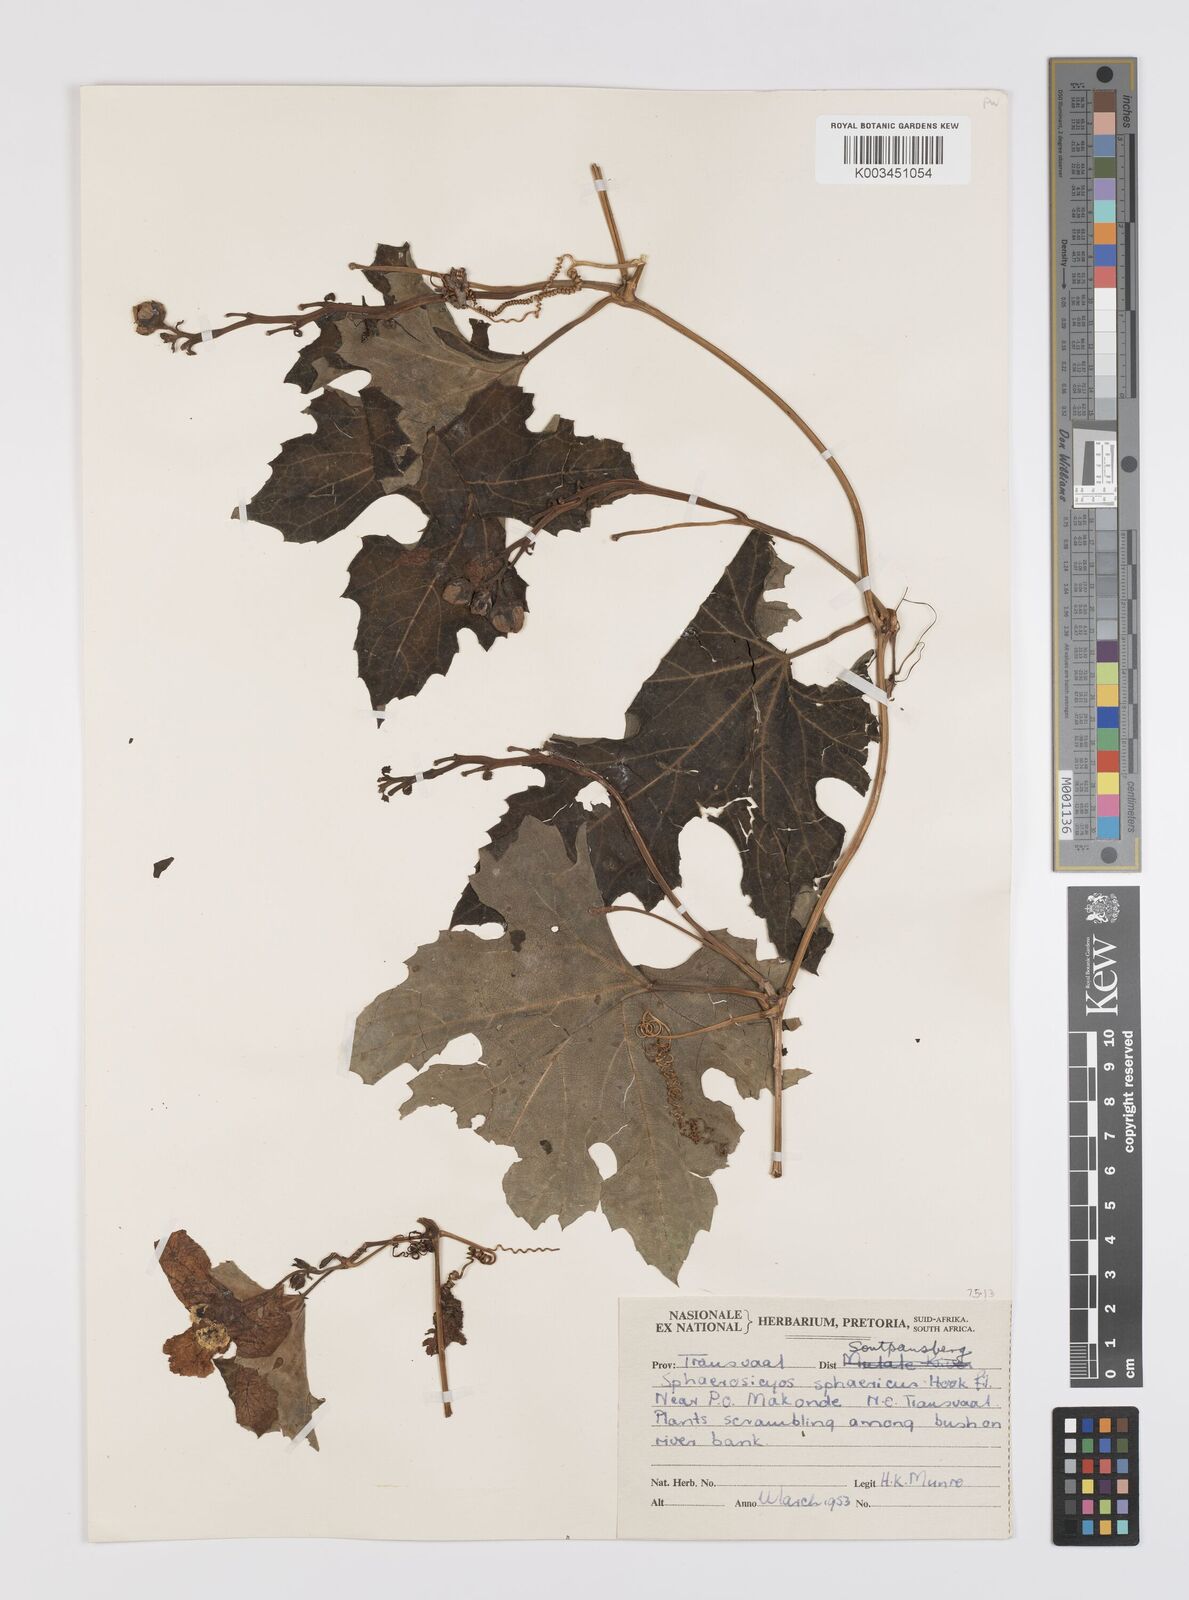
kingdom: Plantae
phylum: Tracheophyta
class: Magnoliopsida
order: Cucurbitales
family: Cucurbitaceae
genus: Lagenaria
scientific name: Lagenaria sphaerica
